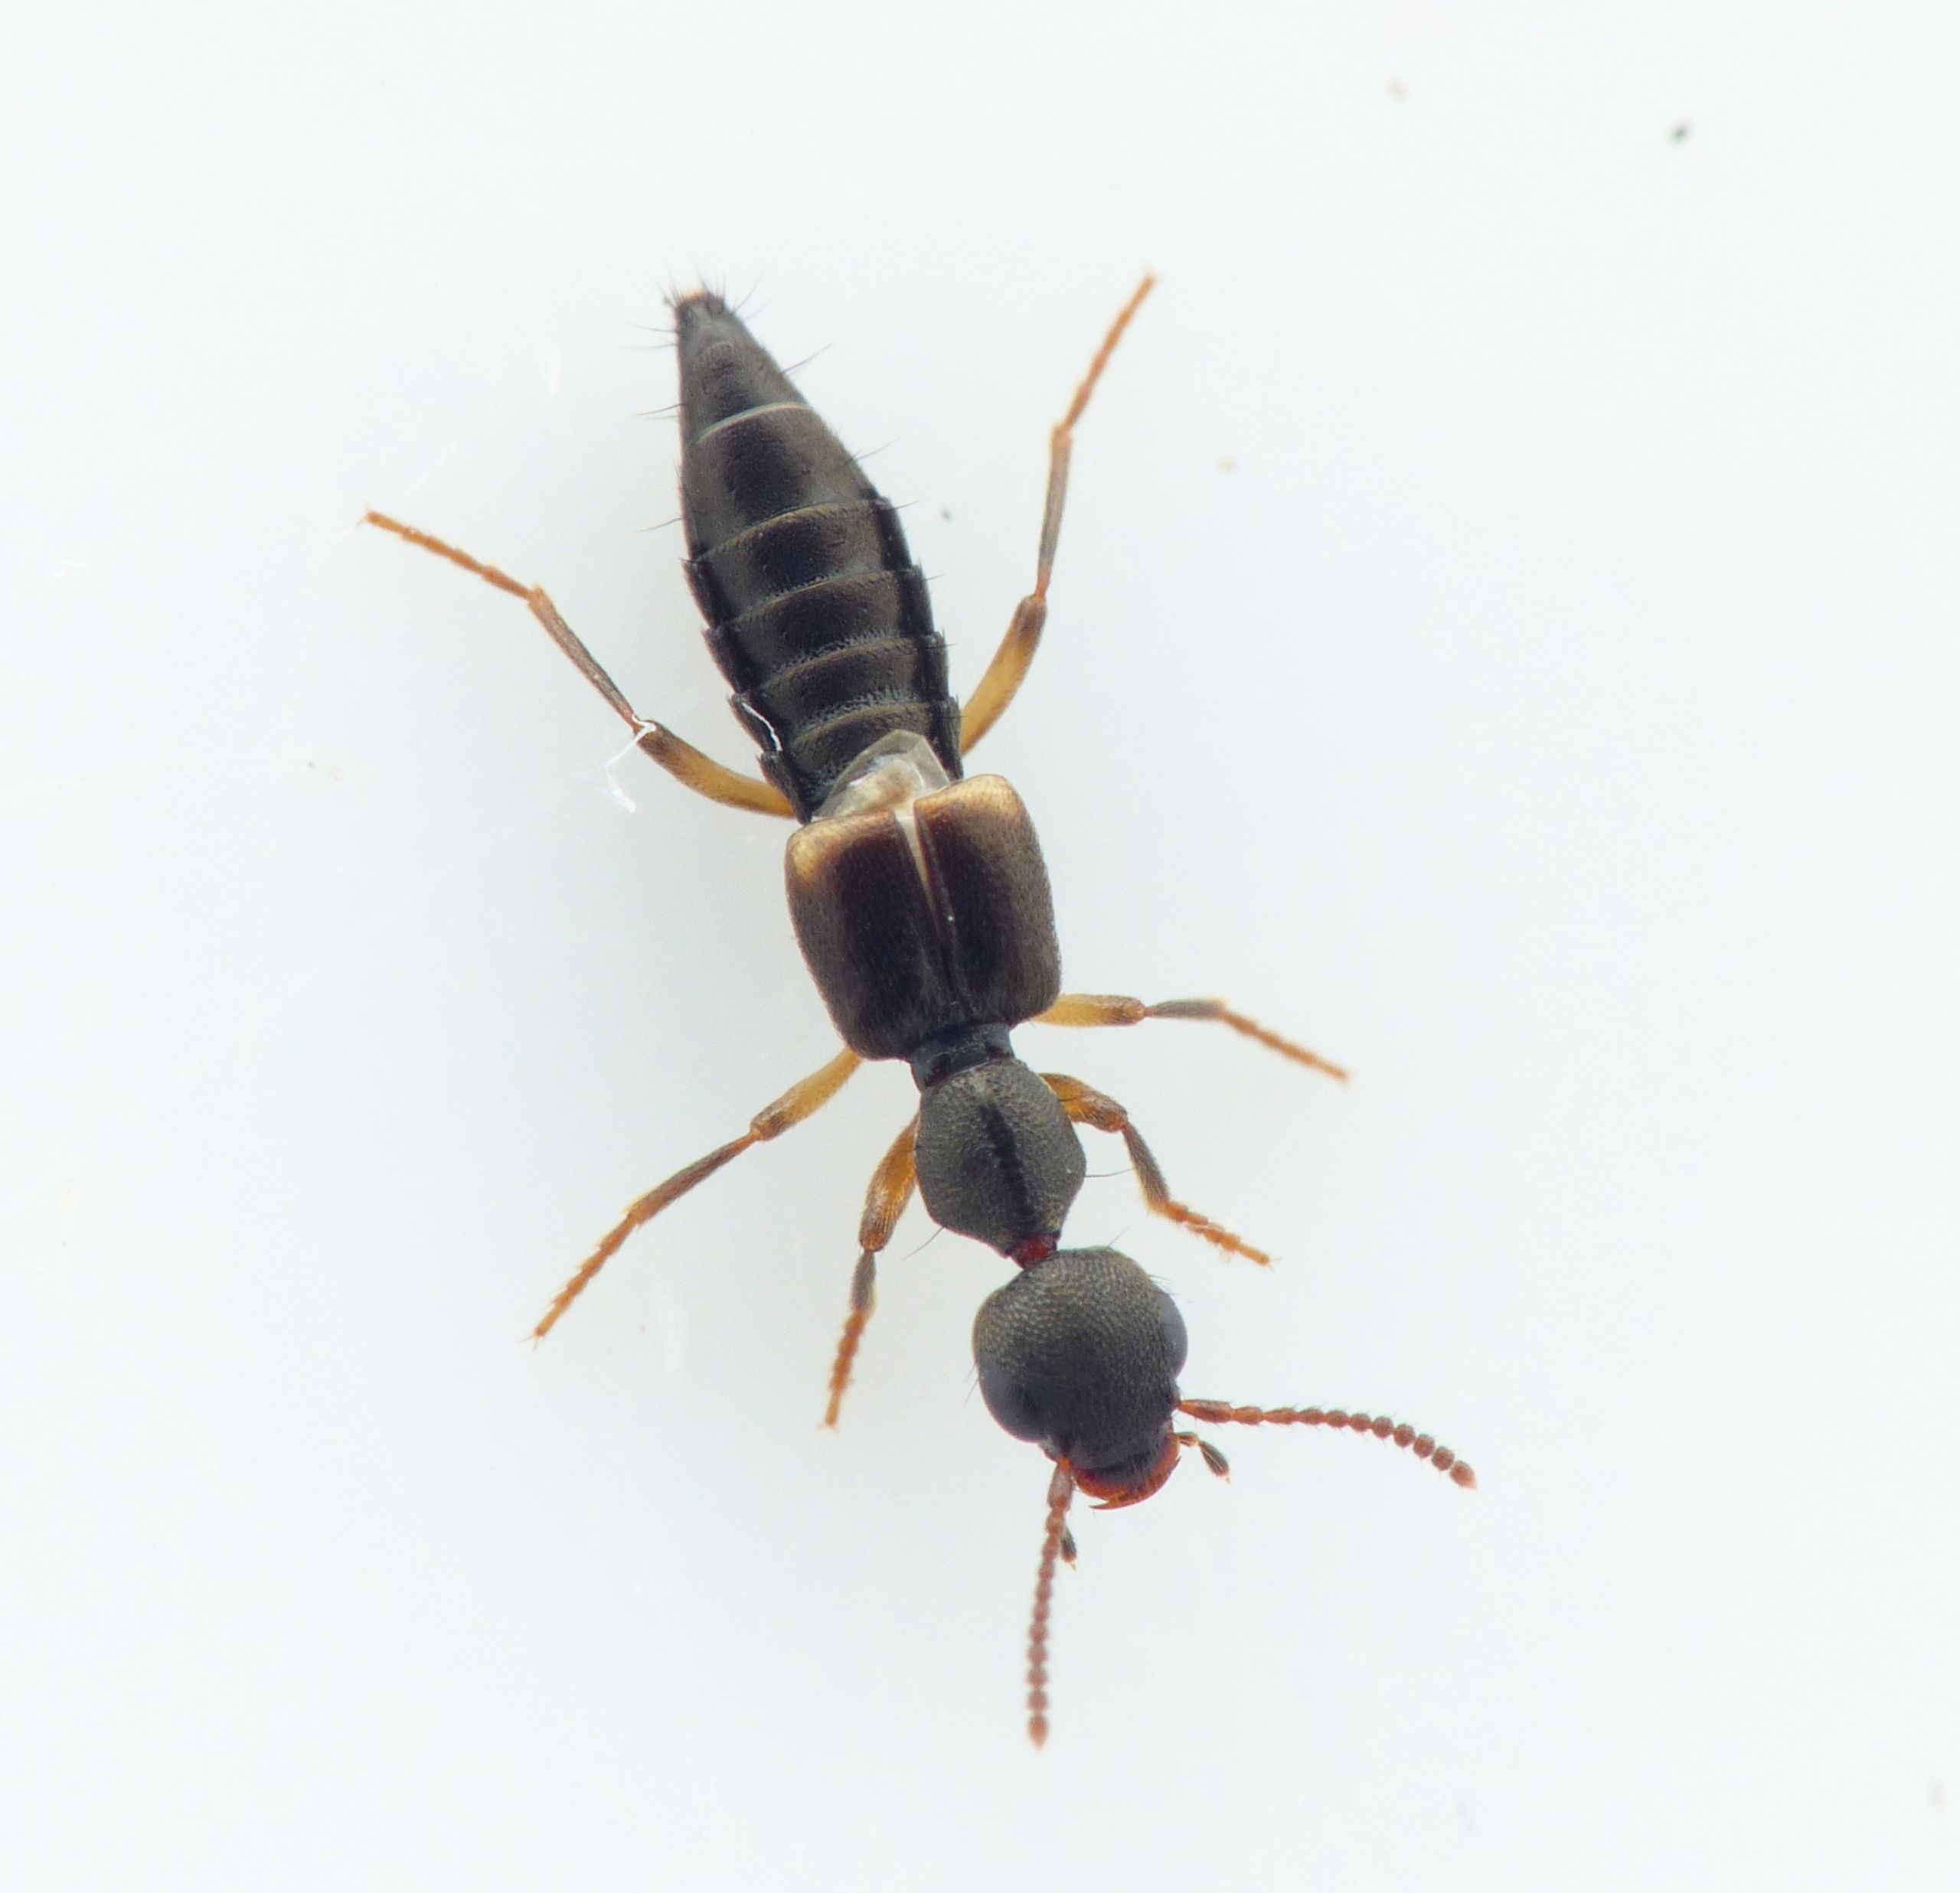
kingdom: Animalia
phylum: Arthropoda
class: Insecta
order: Coleoptera
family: Staphylinidae
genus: Rugilus
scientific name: Rugilus orbiculatus
